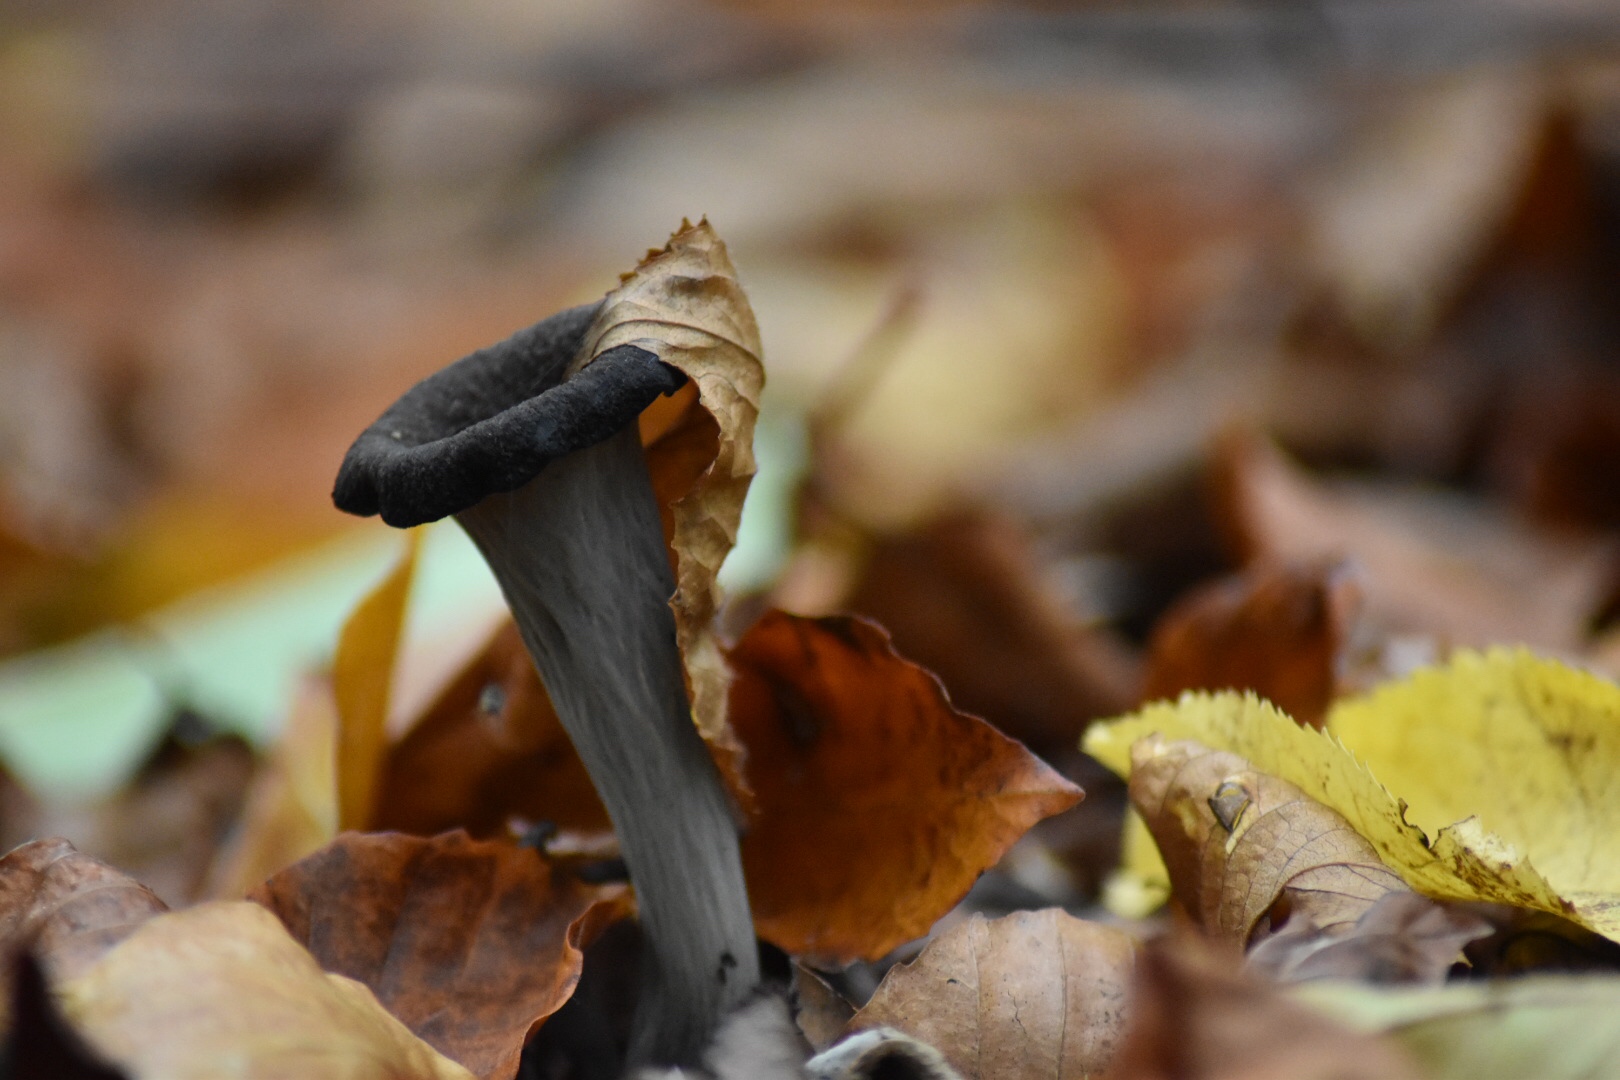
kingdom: Fungi
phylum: Basidiomycota
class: Agaricomycetes
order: Cantharellales
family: Hydnaceae
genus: Craterellus
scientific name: Craterellus cornucopioides
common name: trompetsvamp
